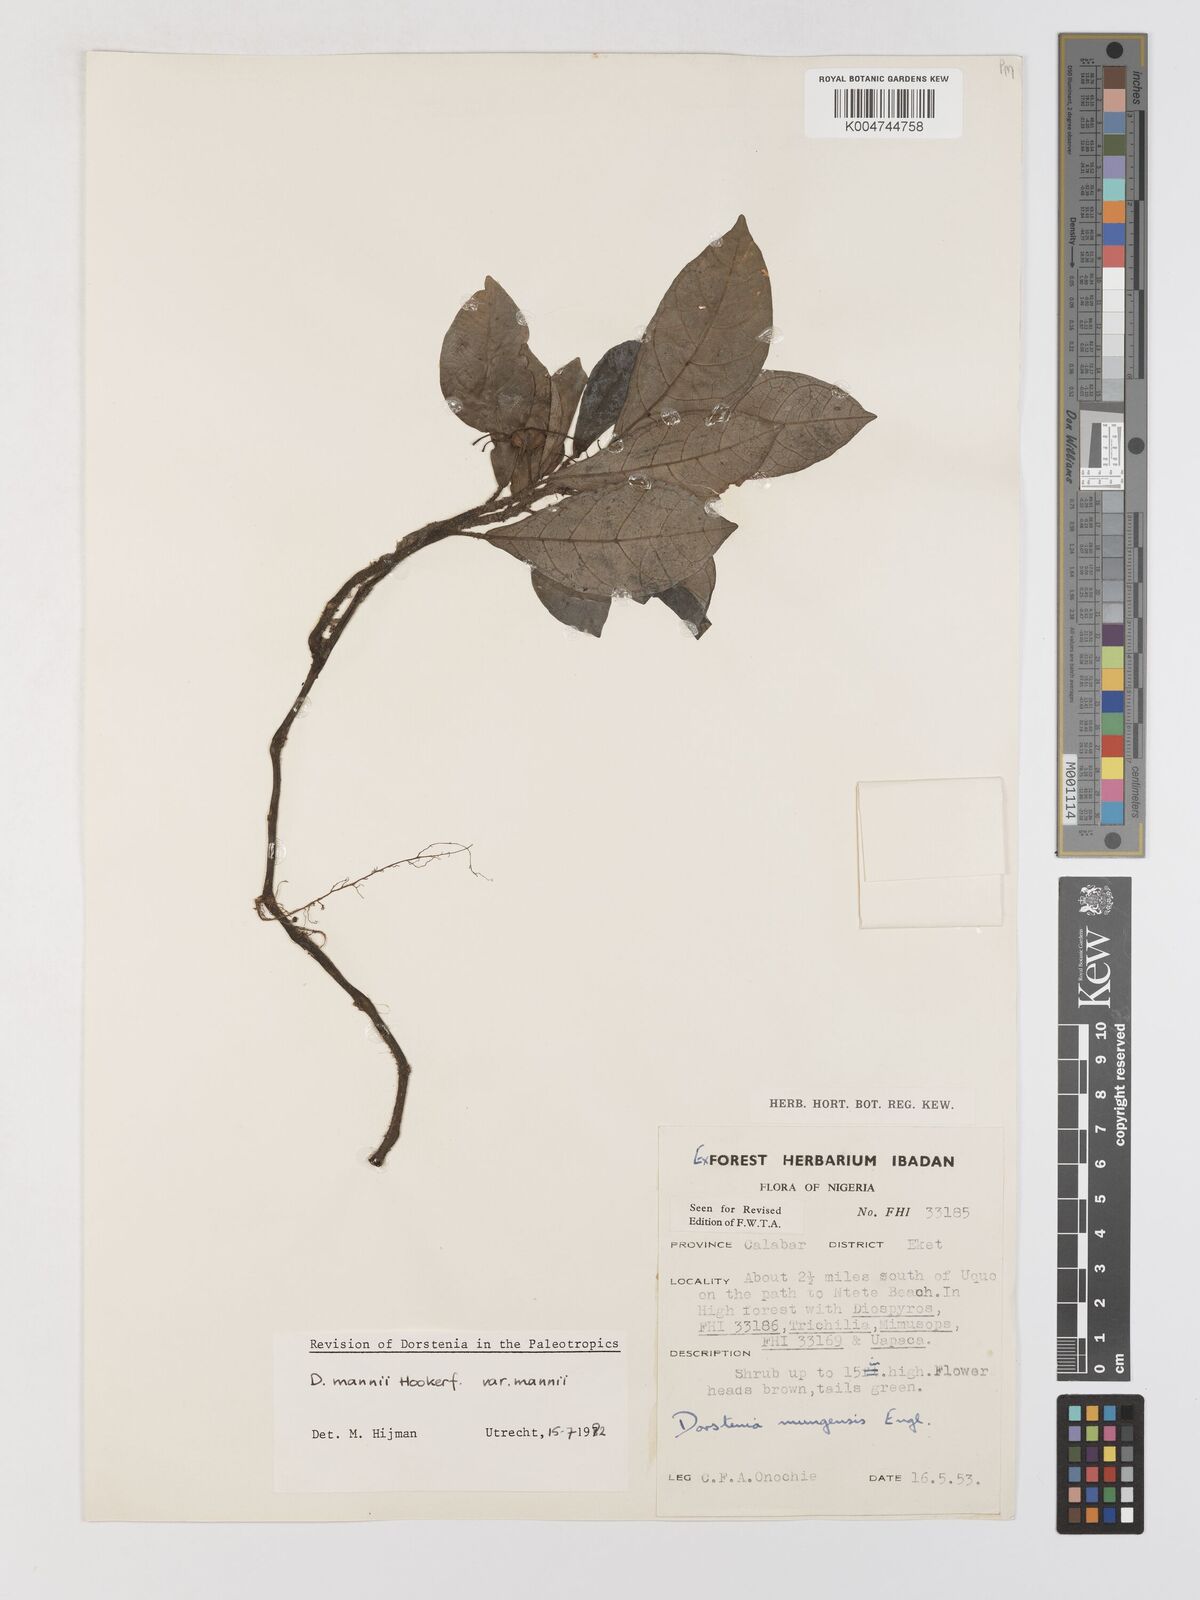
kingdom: Plantae
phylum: Tracheophyta
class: Magnoliopsida
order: Rosales
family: Moraceae
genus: Dorstenia
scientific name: Dorstenia mannii
